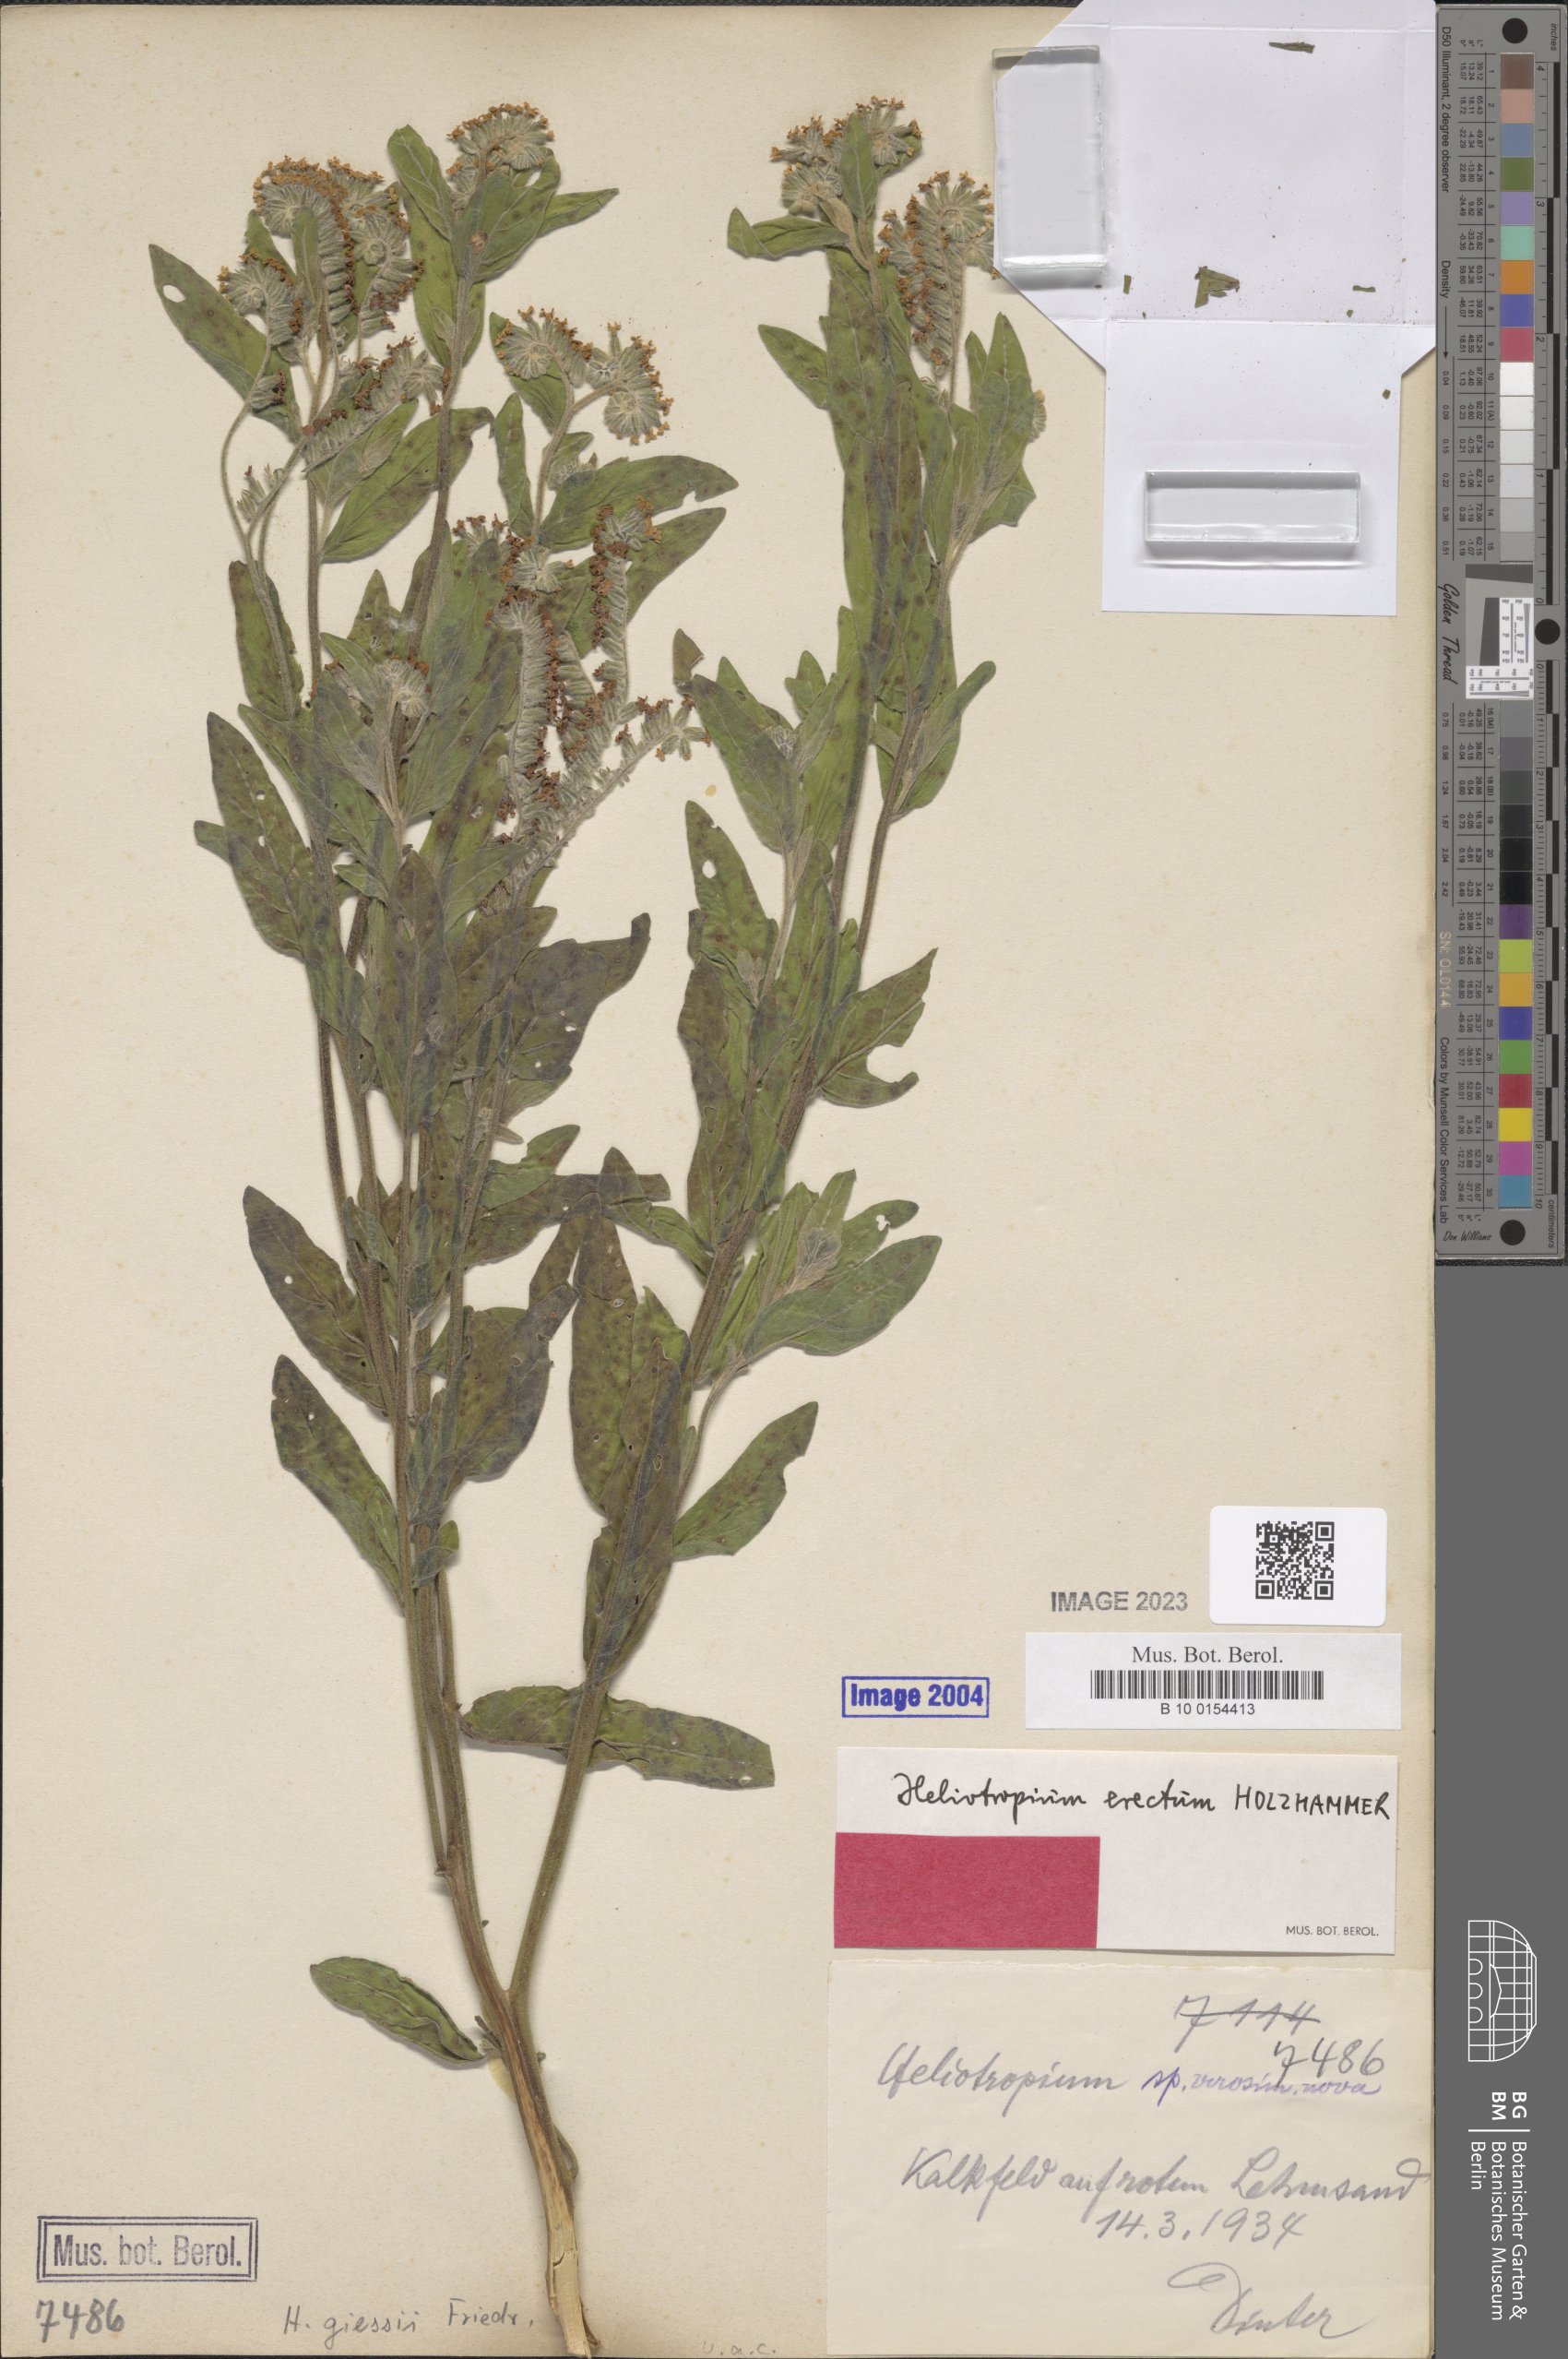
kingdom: Plantae
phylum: Tracheophyta
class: Magnoliopsida
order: Boraginales
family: Heliotropiaceae
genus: Heliotropium
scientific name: Heliotropium giessii
